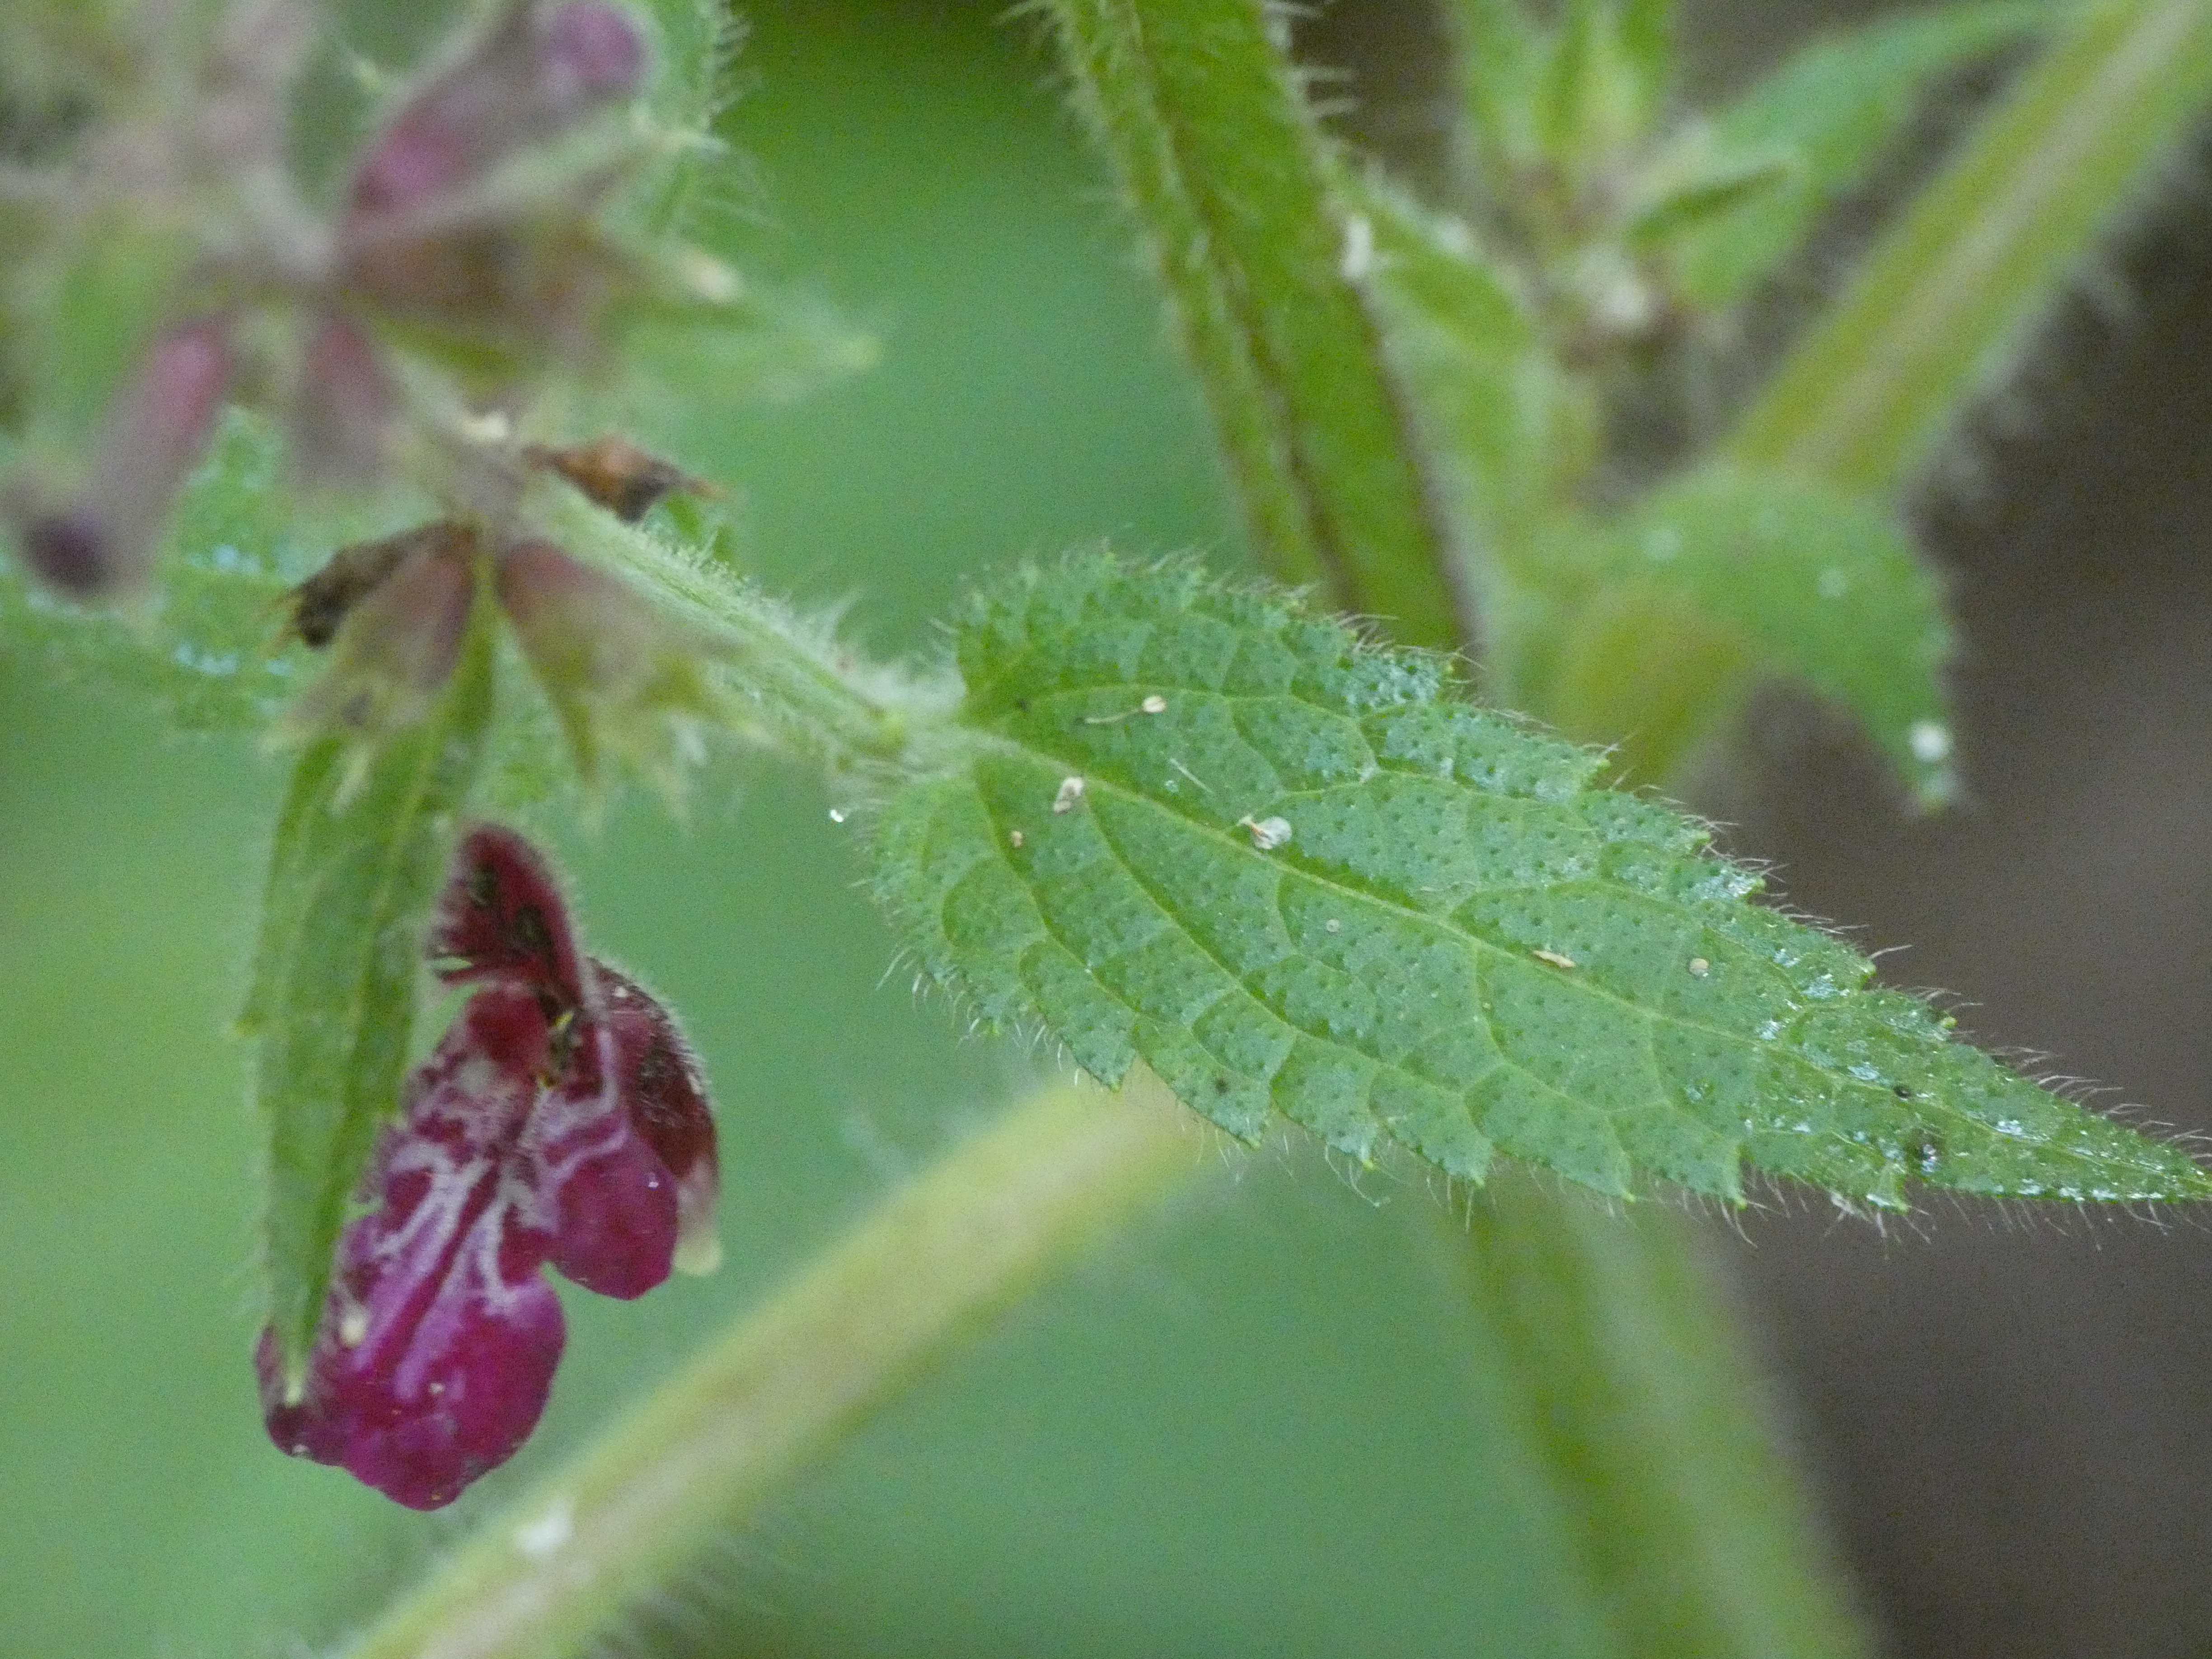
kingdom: Plantae
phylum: Tracheophyta
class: Magnoliopsida
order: Lamiales
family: Lamiaceae
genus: Stachys
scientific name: Stachys sylvatica
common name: Skov-galtetand
